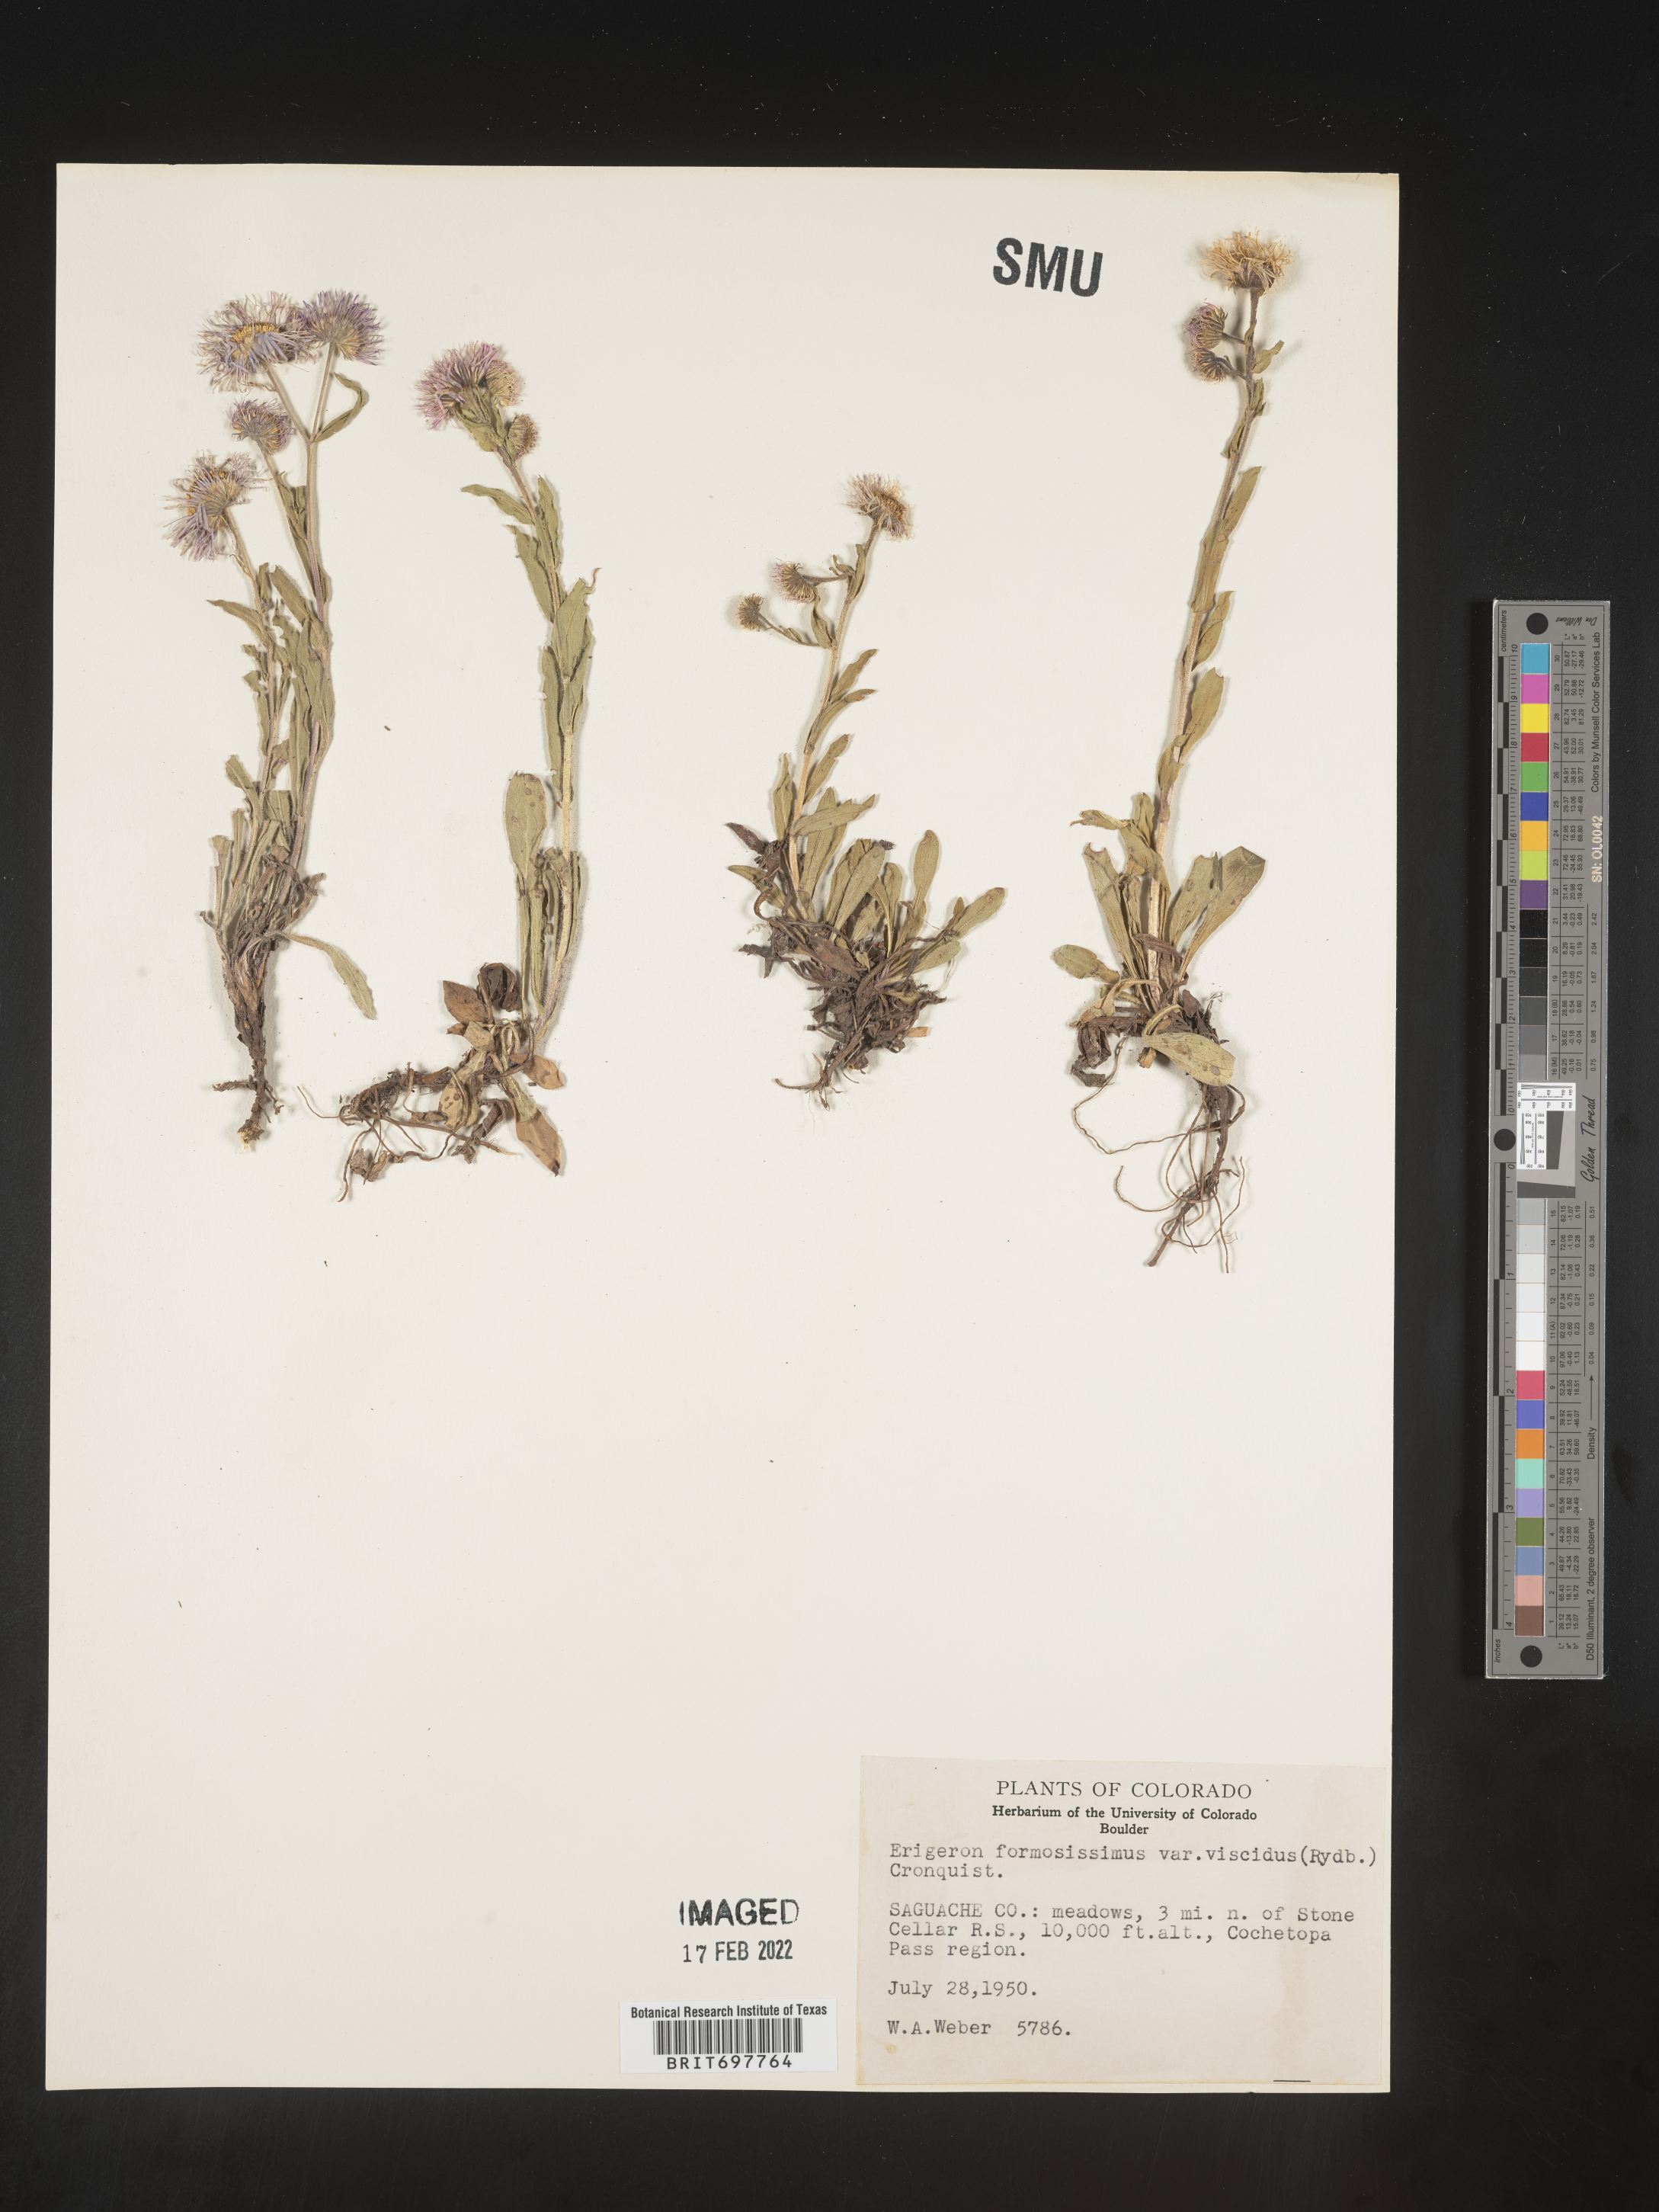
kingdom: Plantae
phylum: Tracheophyta
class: Magnoliopsida
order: Asterales
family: Asteraceae
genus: Erigeron
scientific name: Erigeron formosissimus
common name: Beautiful fleabane
